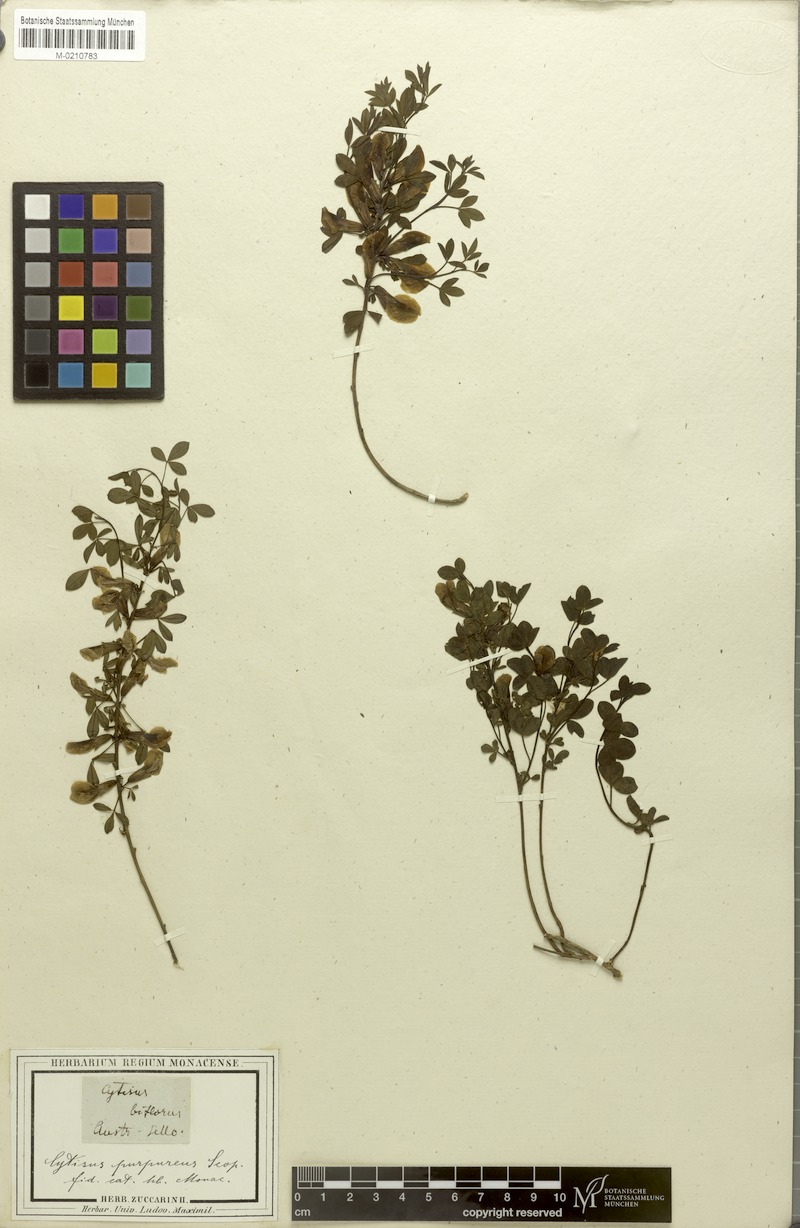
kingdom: Plantae
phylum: Tracheophyta
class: Magnoliopsida
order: Fabales
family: Fabaceae
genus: Chamaecytisus
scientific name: Chamaecytisus purpureus
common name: Purple broom
